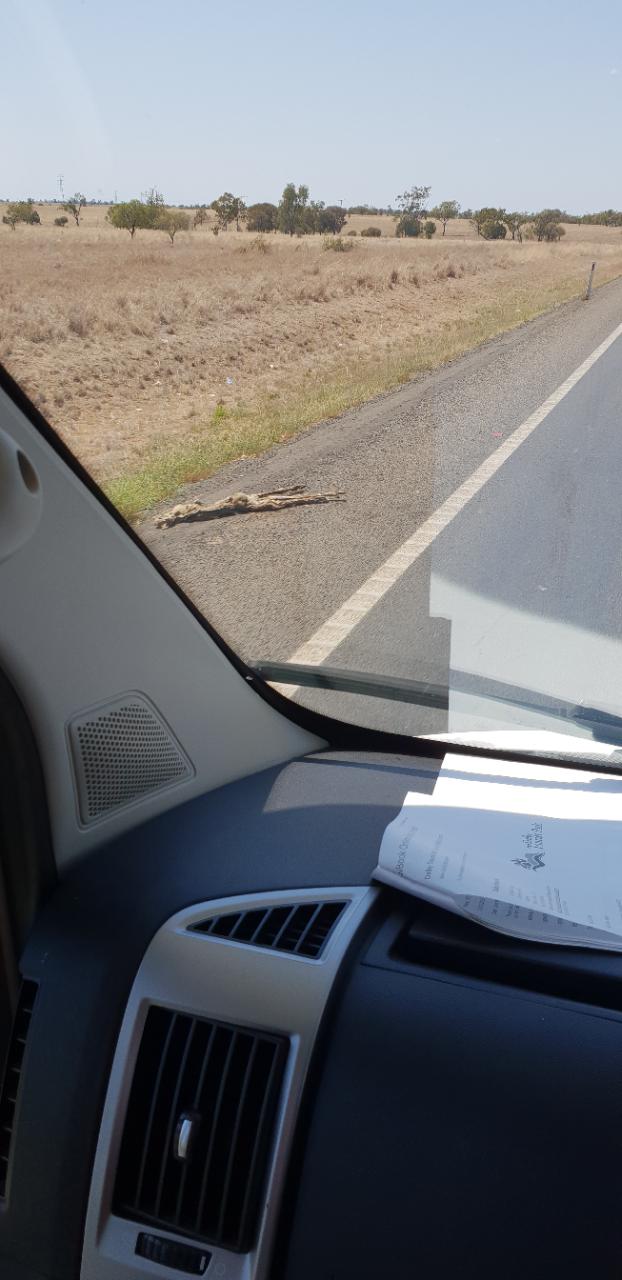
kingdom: Animalia
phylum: Chordata
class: Mammalia
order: Diprotodontia
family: Macropodidae
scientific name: Macropodidae
